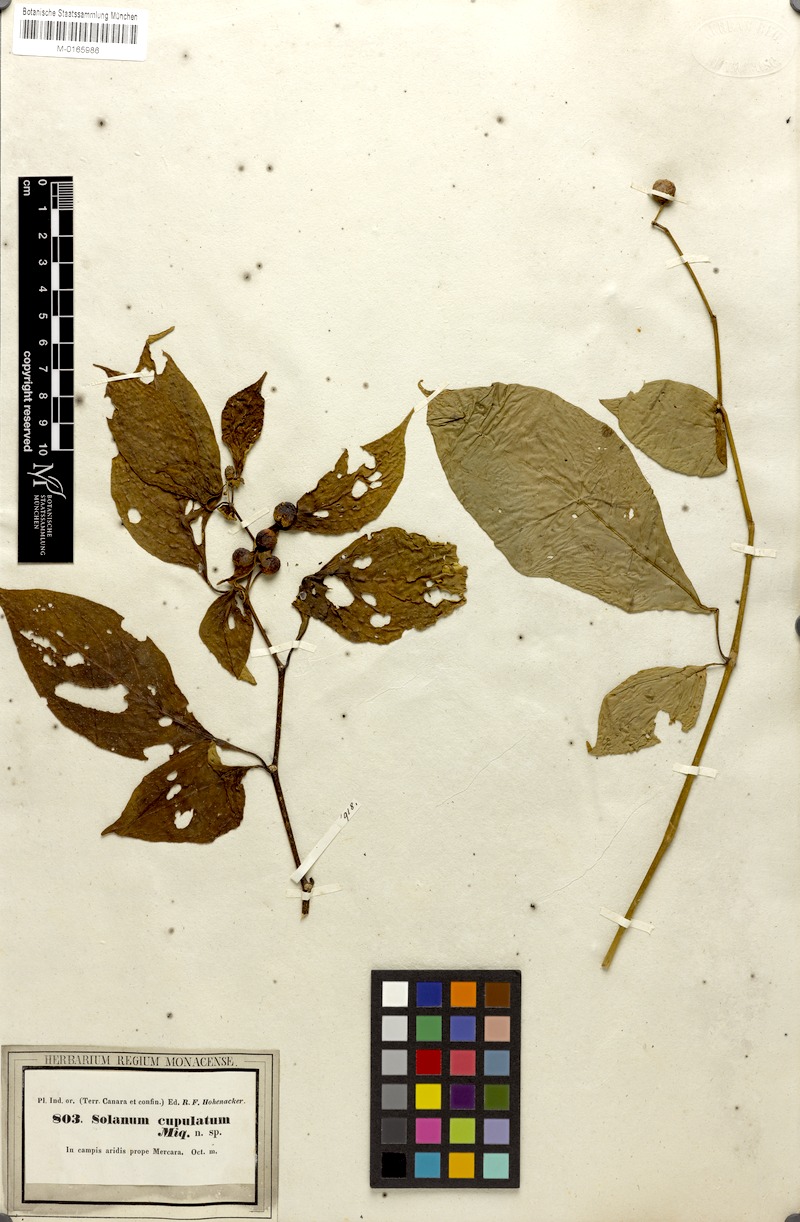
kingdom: Plantae
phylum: Tracheophyta
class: Magnoliopsida
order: Solanales
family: Solanaceae
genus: Lycianthes
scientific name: Lycianthes bigeminata
